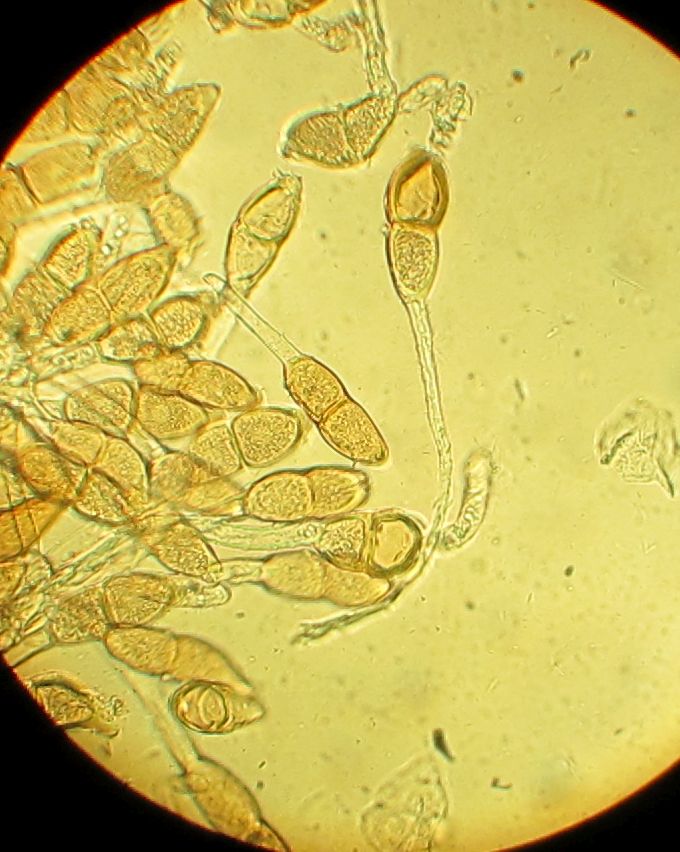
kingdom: Fungi
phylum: Basidiomycota
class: Pucciniomycetes
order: Pucciniales
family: Pucciniaceae
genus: Puccinia
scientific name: Puccinia malvacearum
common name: stokrose-tvecellerust
